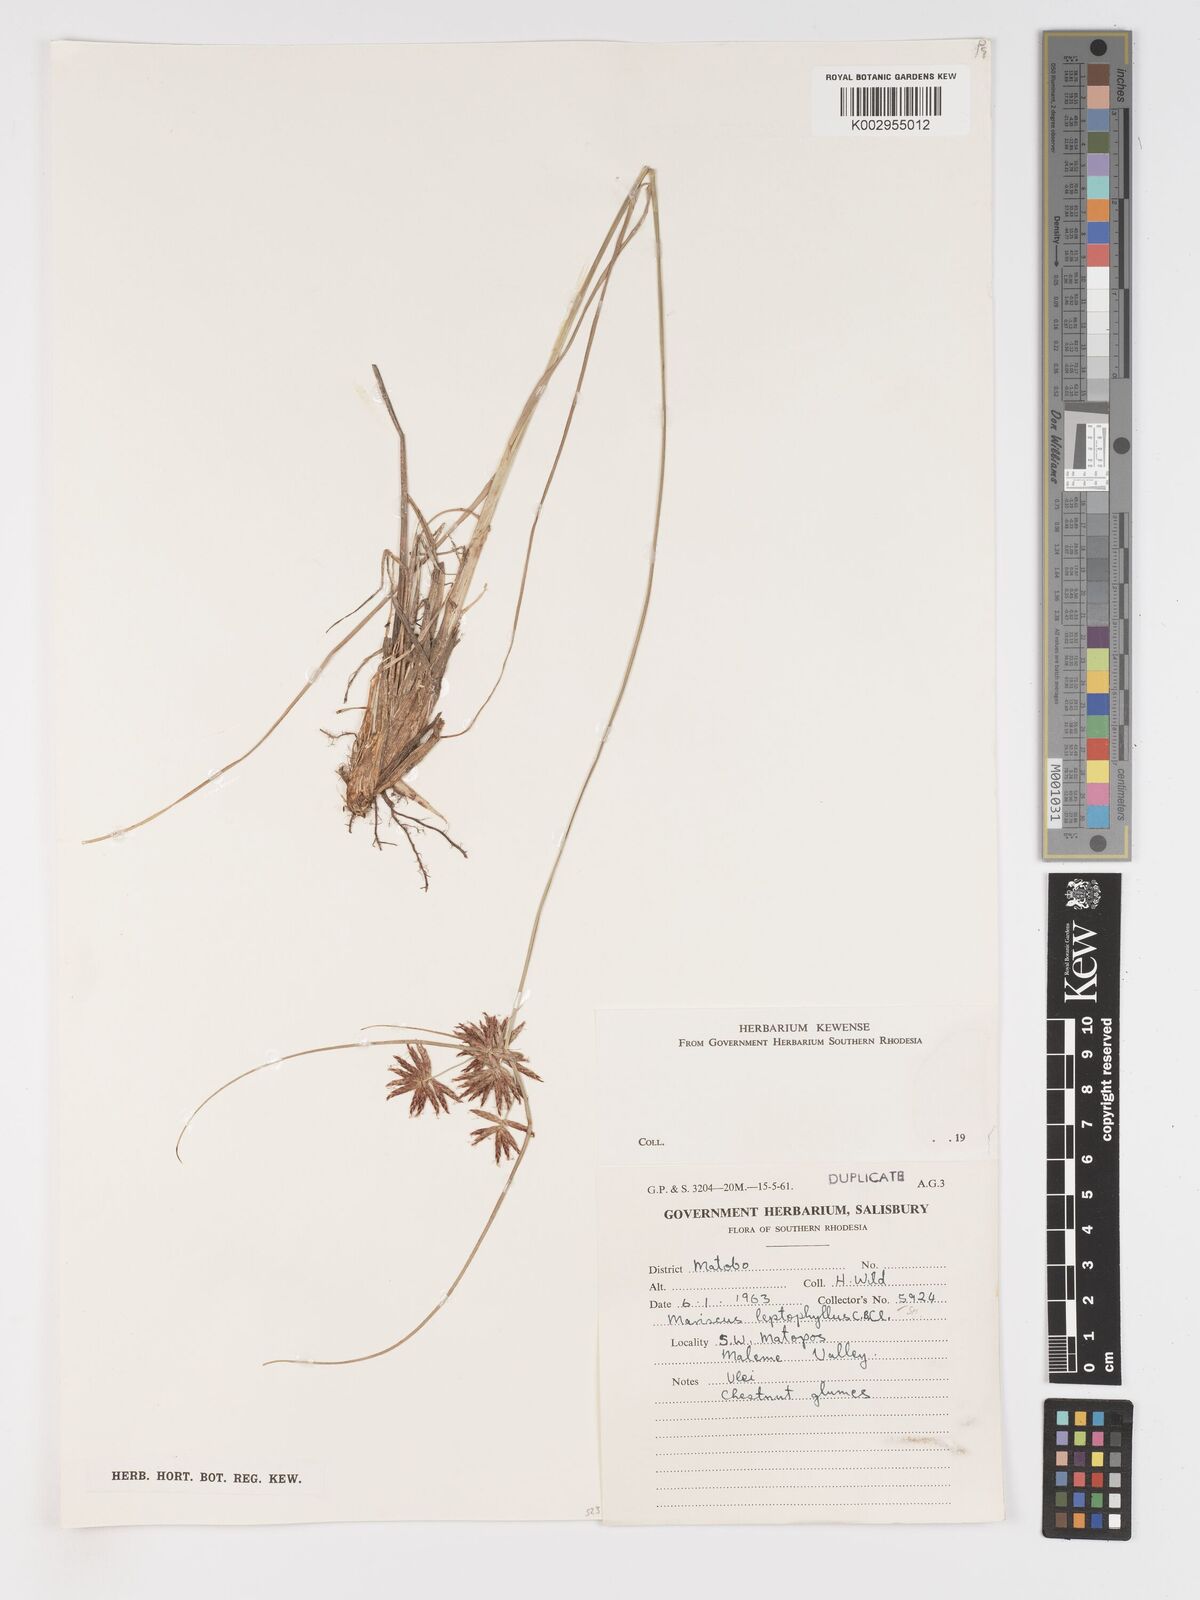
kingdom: Plantae
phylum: Tracheophyta
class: Liliopsida
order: Poales
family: Cyperaceae
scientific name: Cyperaceae
